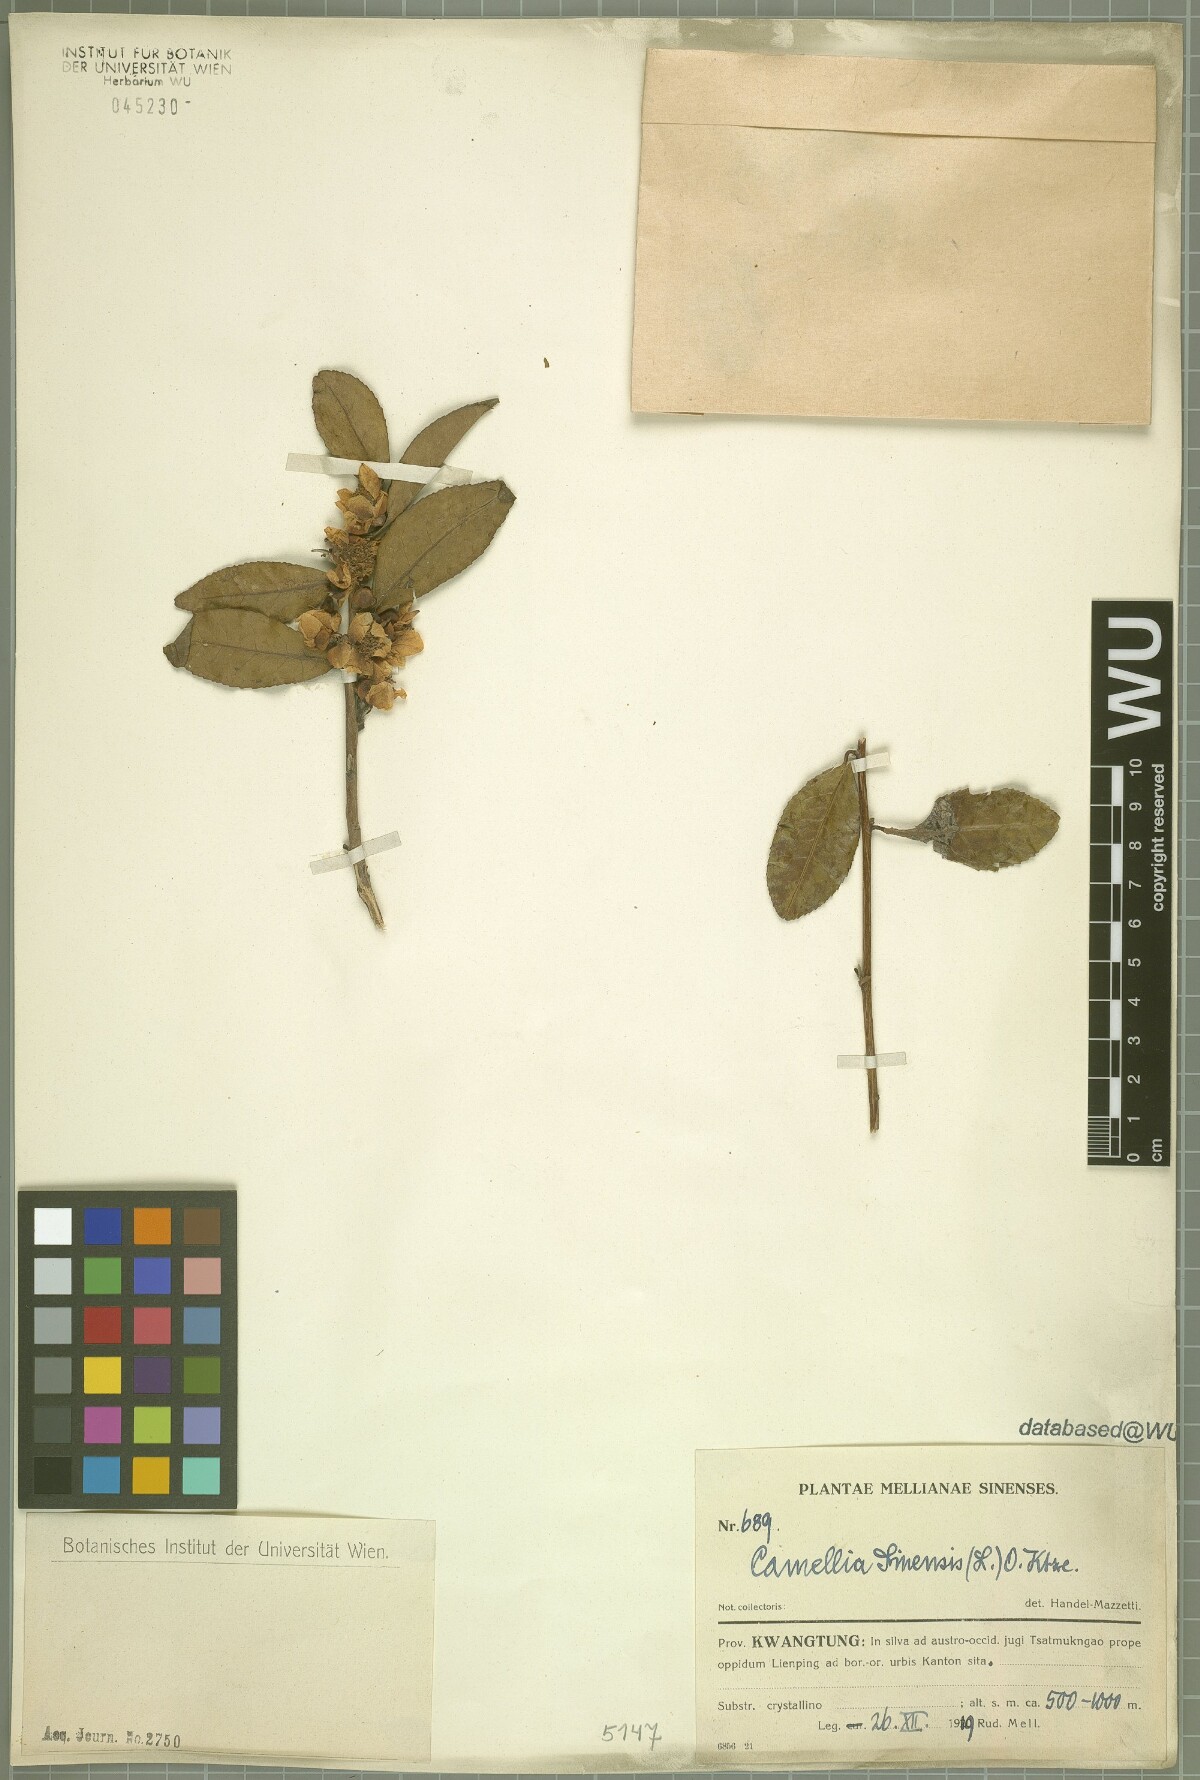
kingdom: Plantae
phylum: Tracheophyta
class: Magnoliopsida
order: Ericales
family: Theaceae
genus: Camellia
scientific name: Camellia sinensis
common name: Tea
